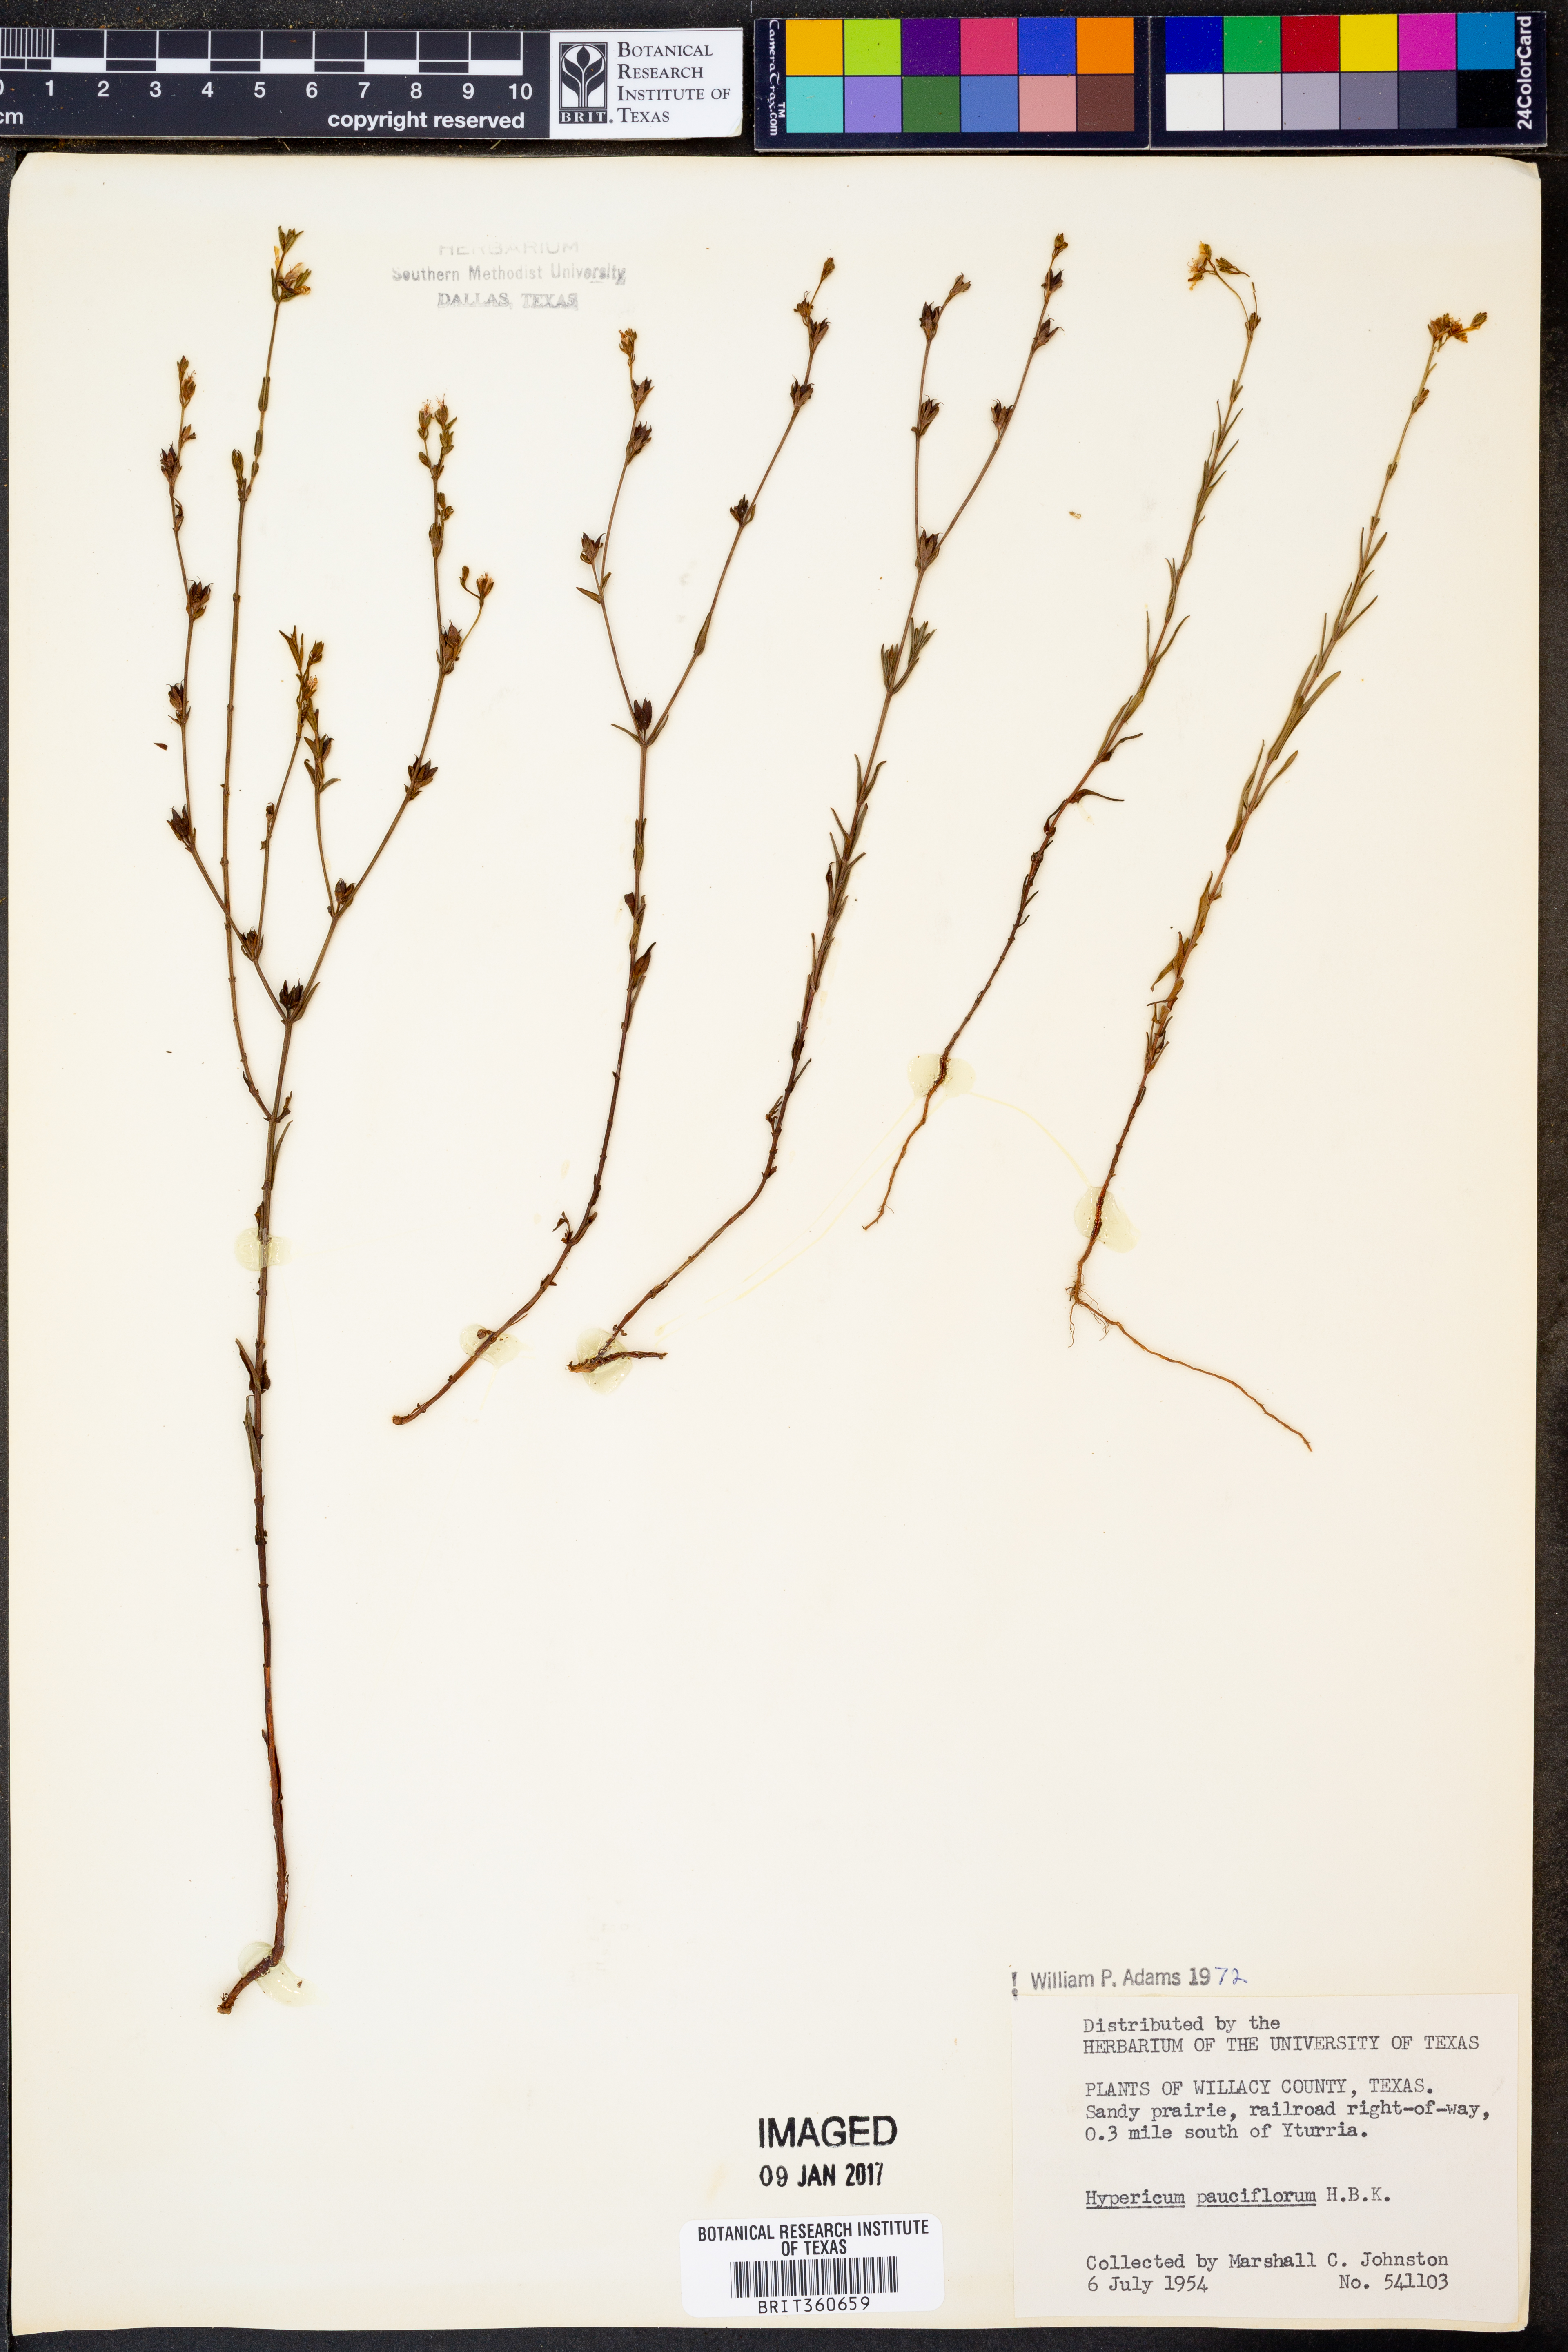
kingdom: Plantae
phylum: Tracheophyta
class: Magnoliopsida
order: Malpighiales
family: Hypericaceae
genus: Hypericum
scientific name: Hypericum pauciflorum
